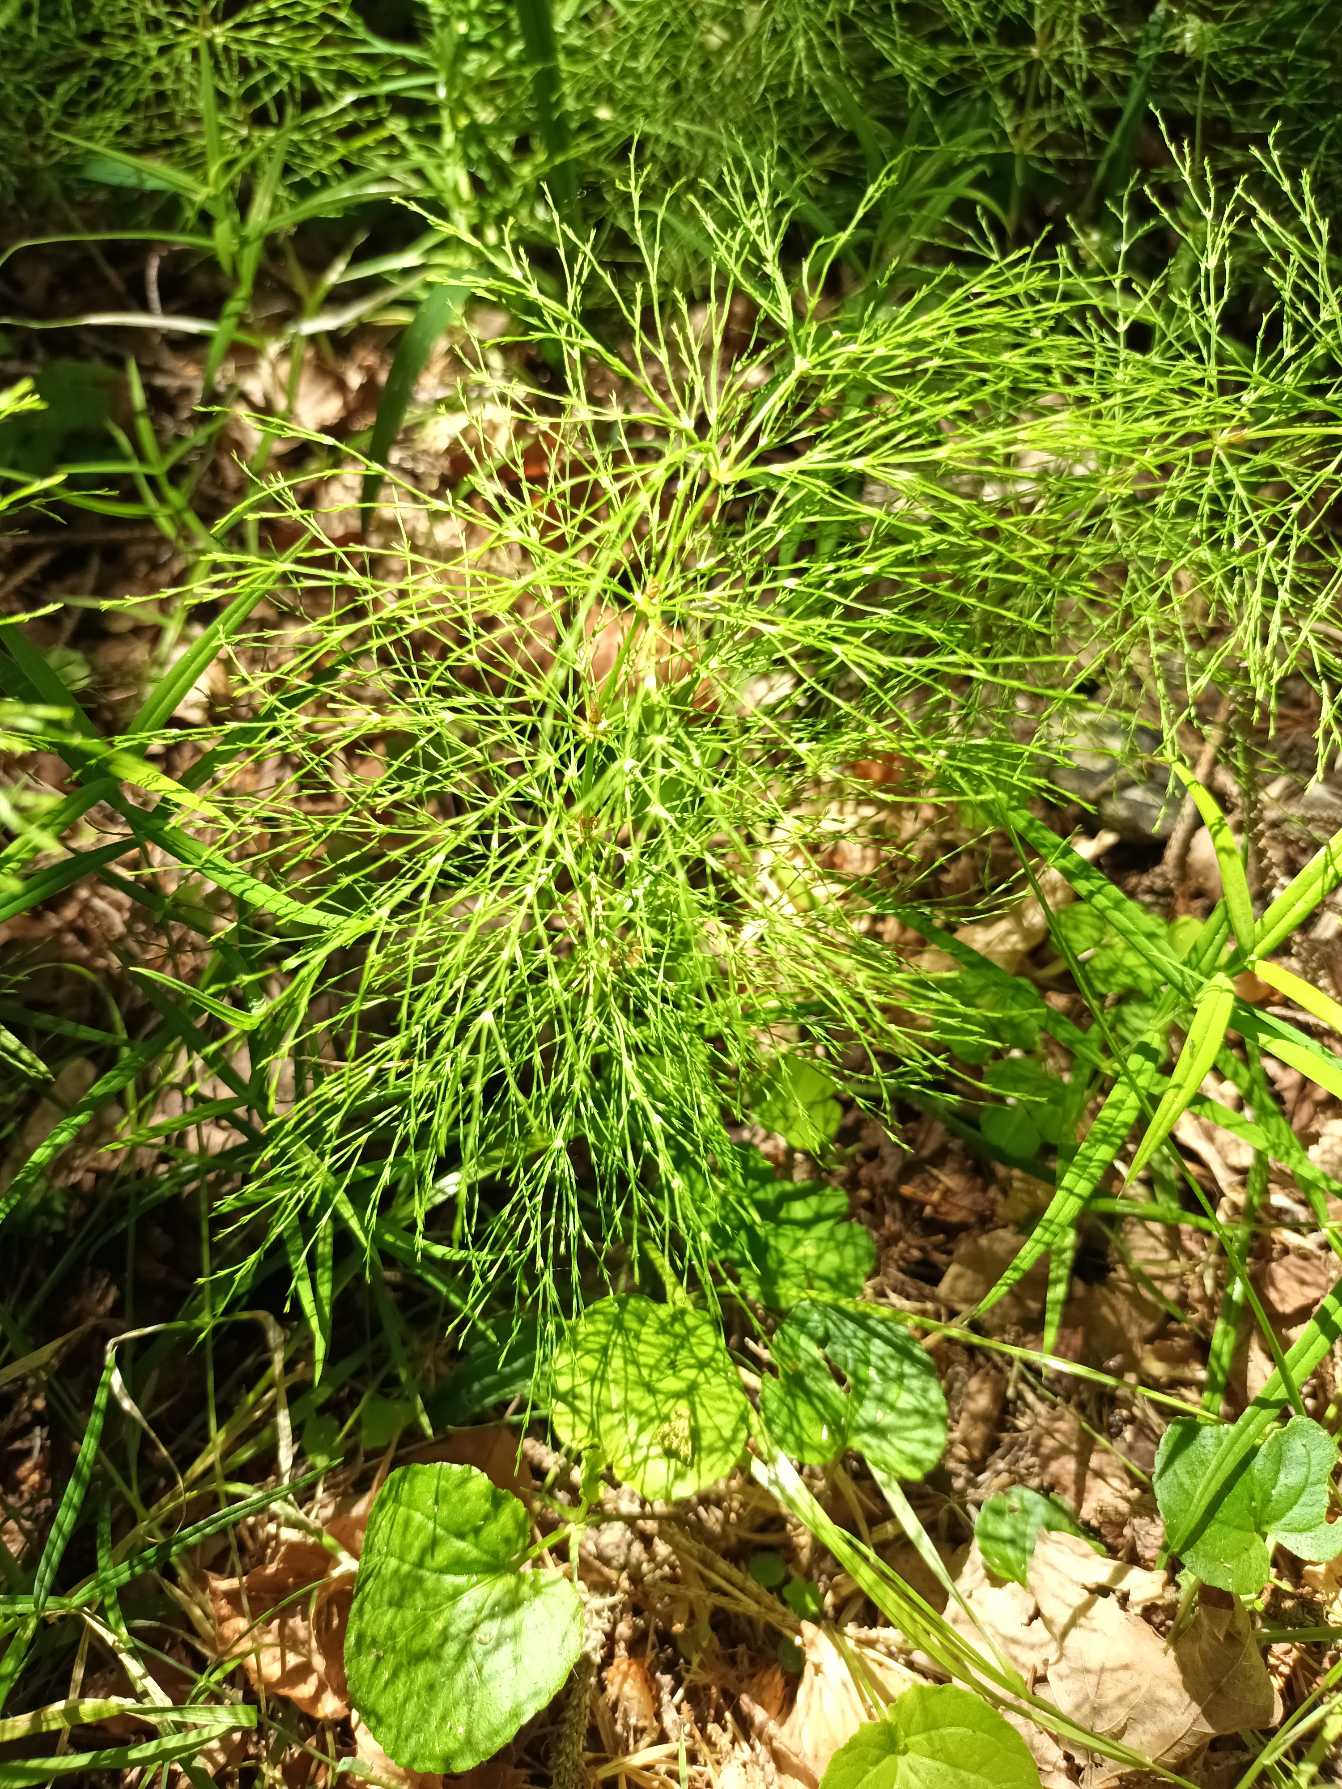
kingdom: Plantae
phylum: Tracheophyta
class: Polypodiopsida
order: Equisetales
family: Equisetaceae
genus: Equisetum
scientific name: Equisetum sylvaticum
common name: Skov-padderok
